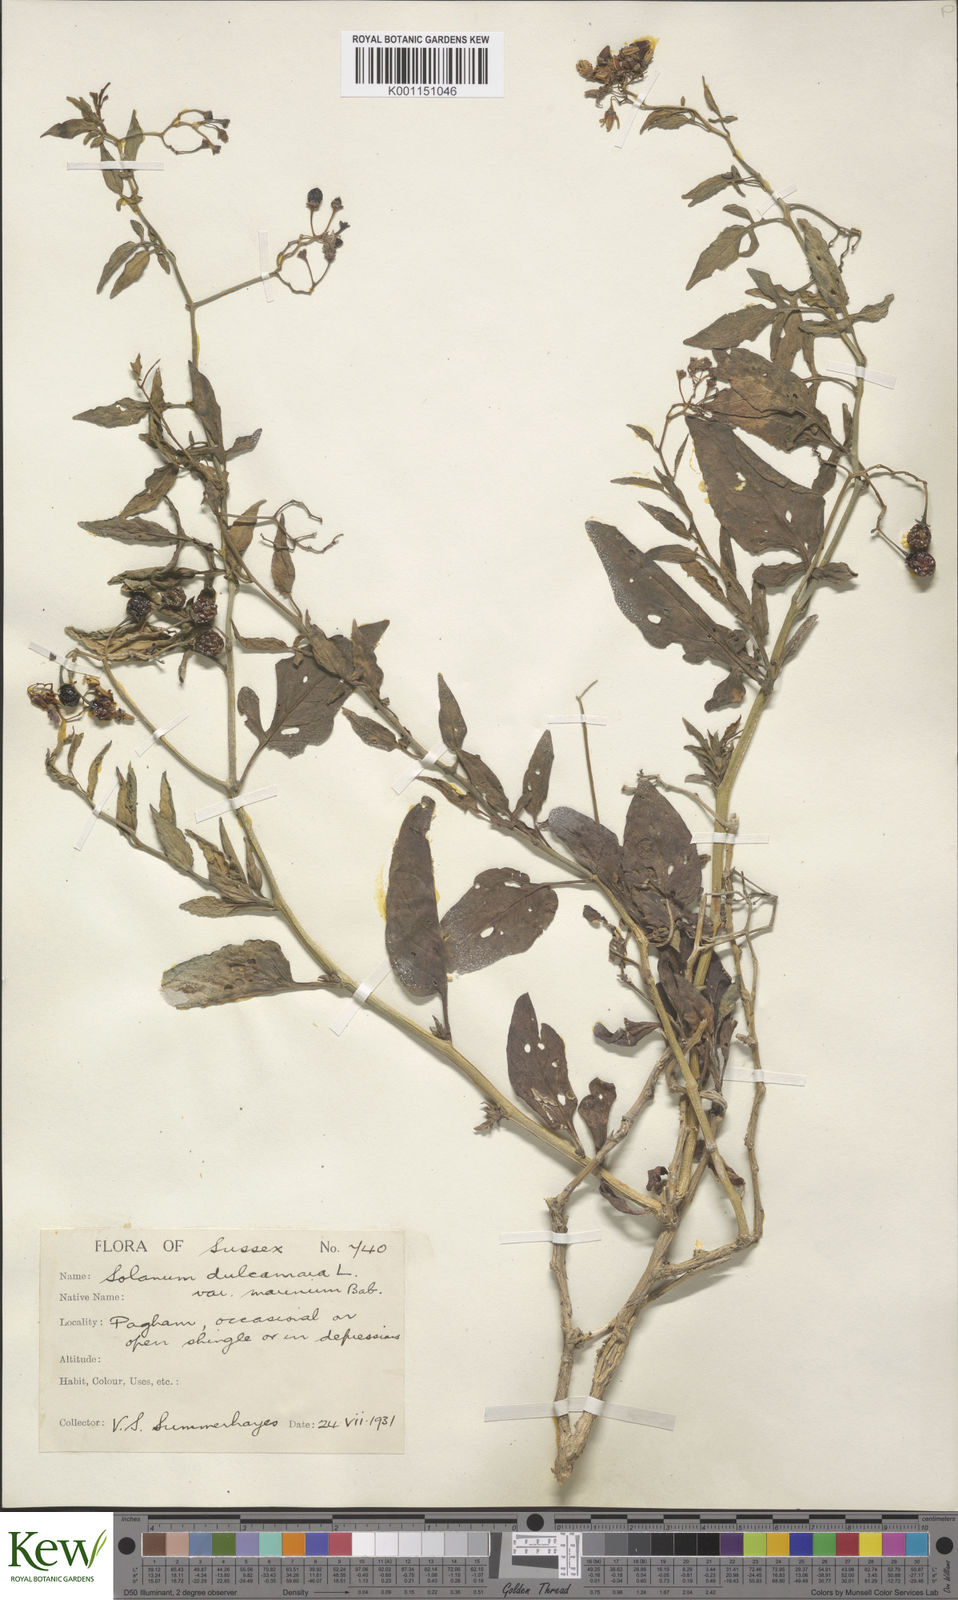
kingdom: Plantae
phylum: Tracheophyta
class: Magnoliopsida
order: Solanales
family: Solanaceae
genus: Solanum
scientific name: Solanum dulcamara
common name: Climbing nightshade
